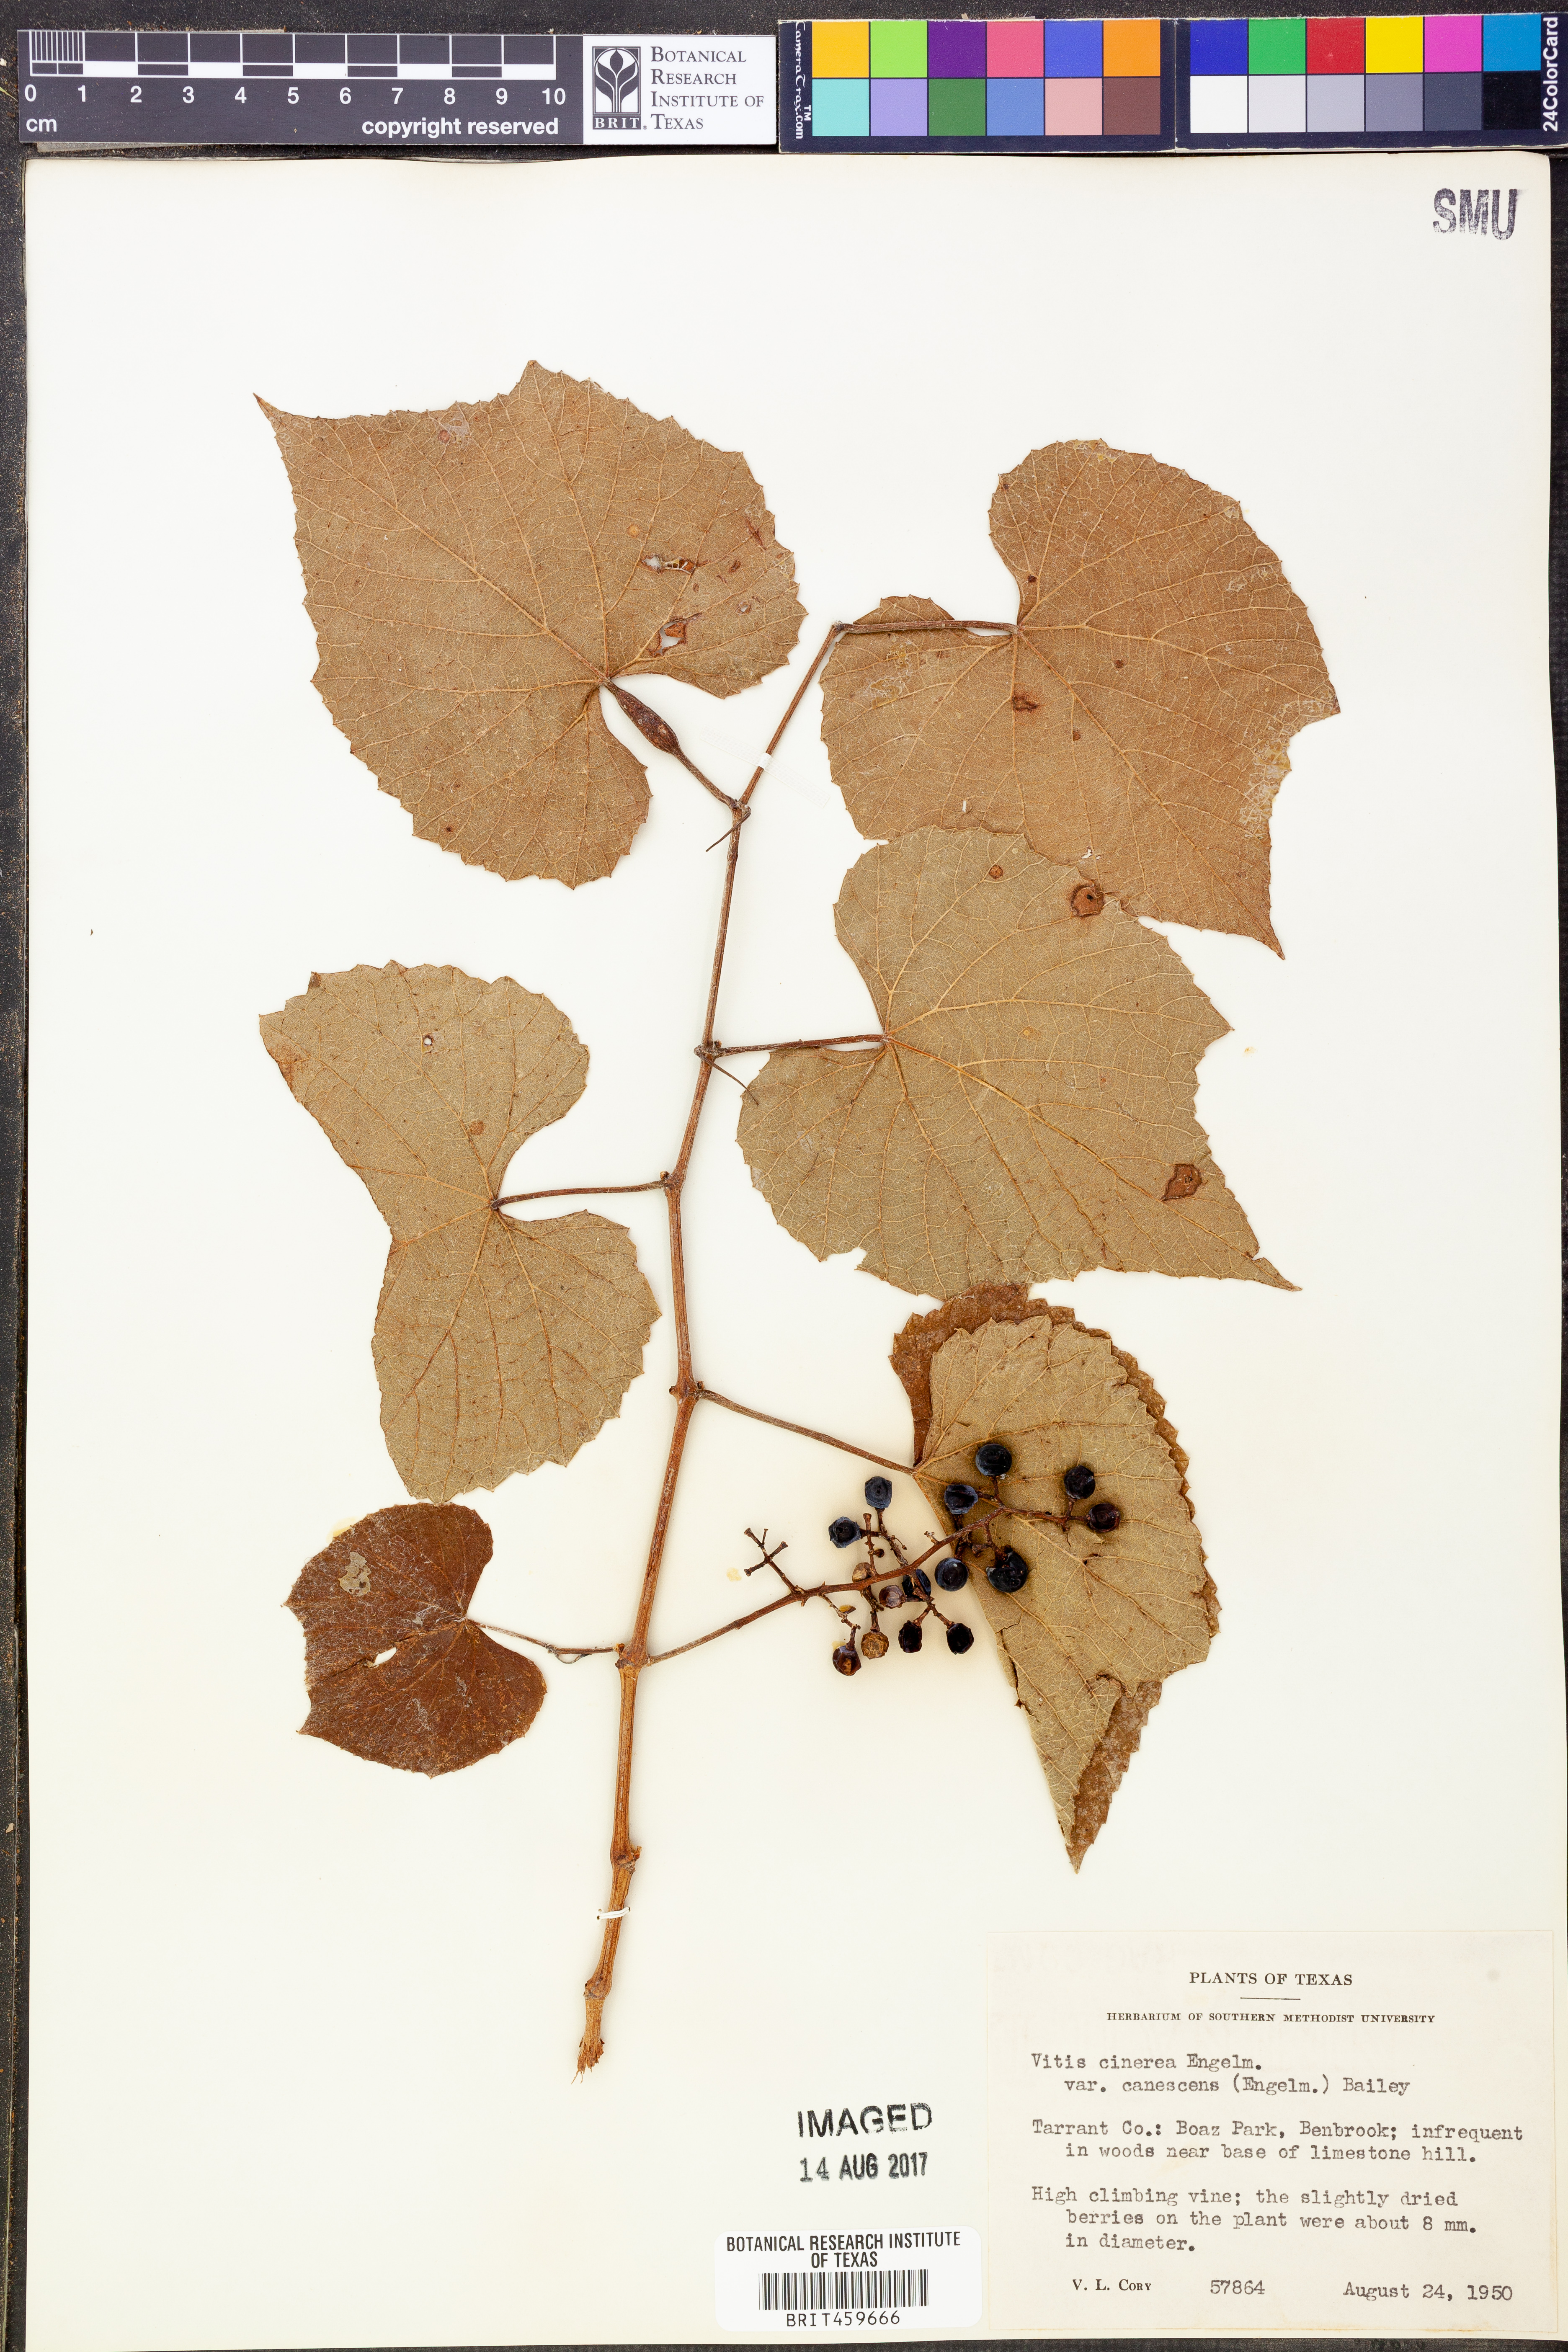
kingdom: Plantae
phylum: Tracheophyta
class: Magnoliopsida
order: Vitales
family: Vitaceae
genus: Vitis
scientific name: Vitis cinerea
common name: Ashy grape
